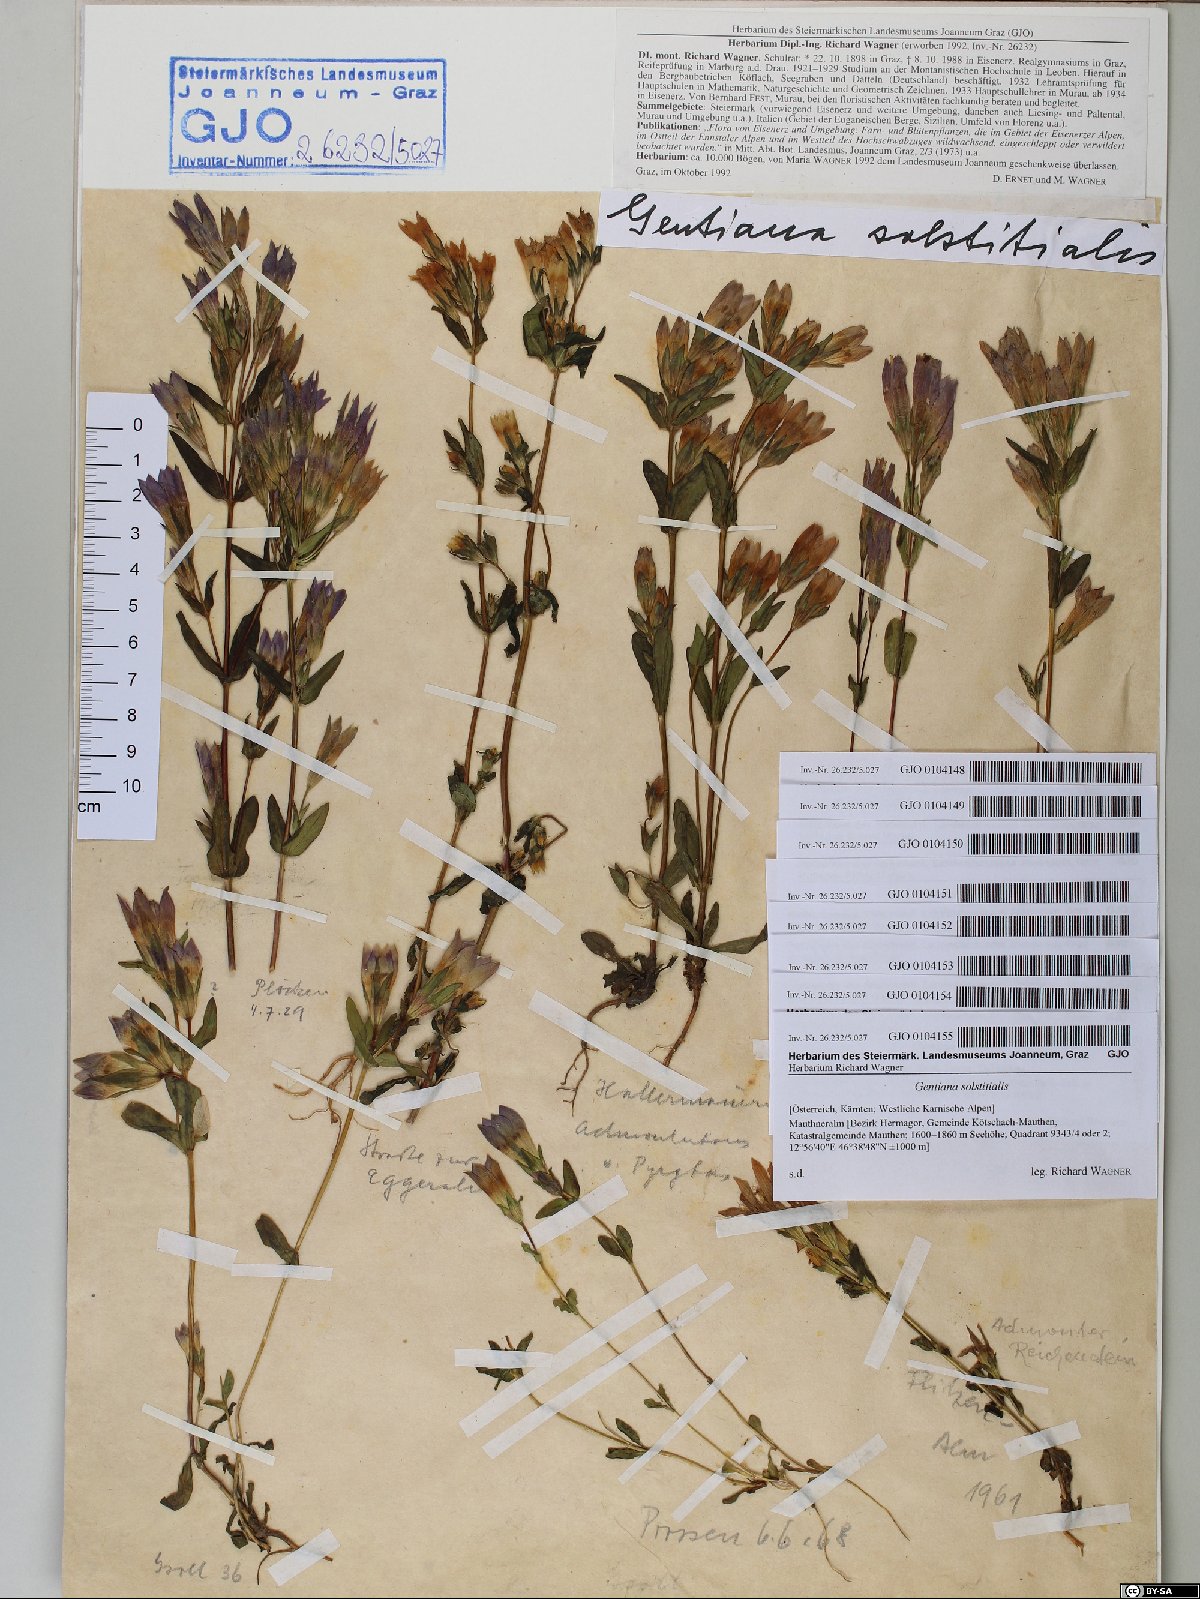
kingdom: Plantae
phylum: Tracheophyta
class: Magnoliopsida
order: Gentianales
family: Gentianaceae
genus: Gentianella
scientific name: Gentianella germanica
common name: Chiltern-gentian
